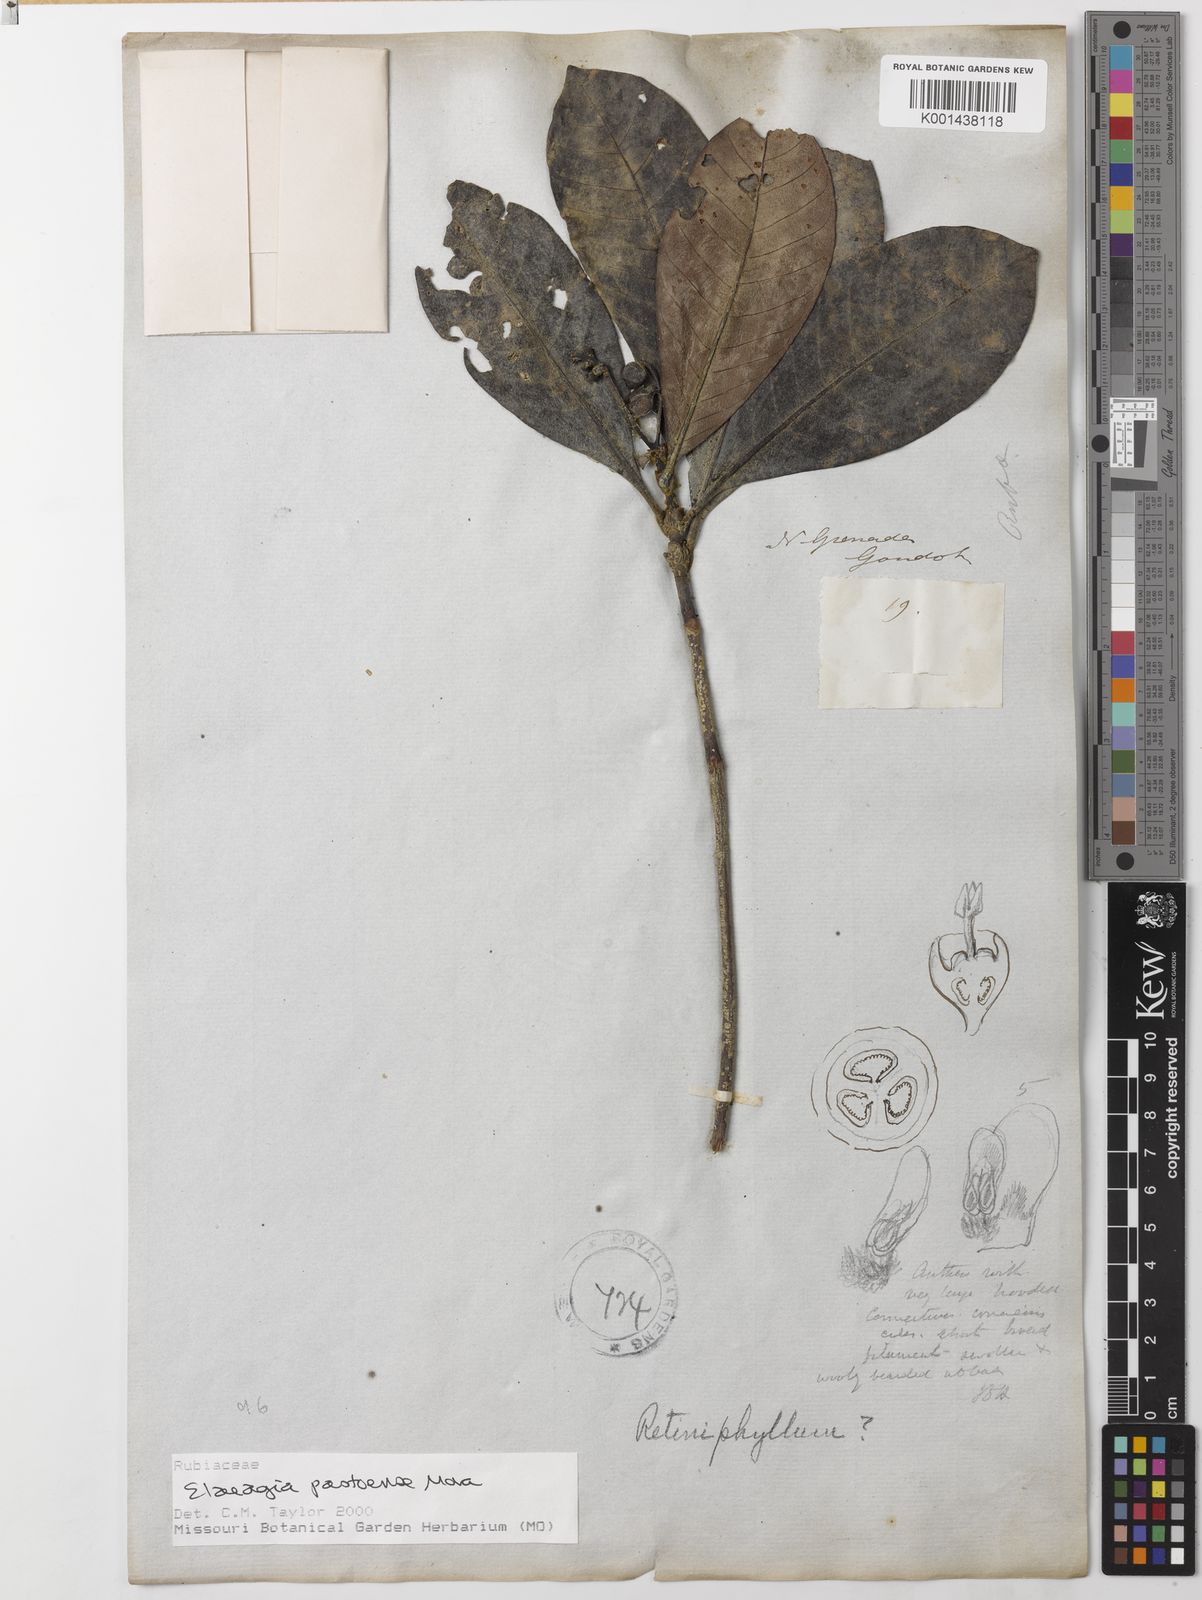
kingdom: Plantae
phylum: Tracheophyta
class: Magnoliopsida
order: Gentianales
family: Rubiaceae
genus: Elaeagia
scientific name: Elaeagia pastoensis
